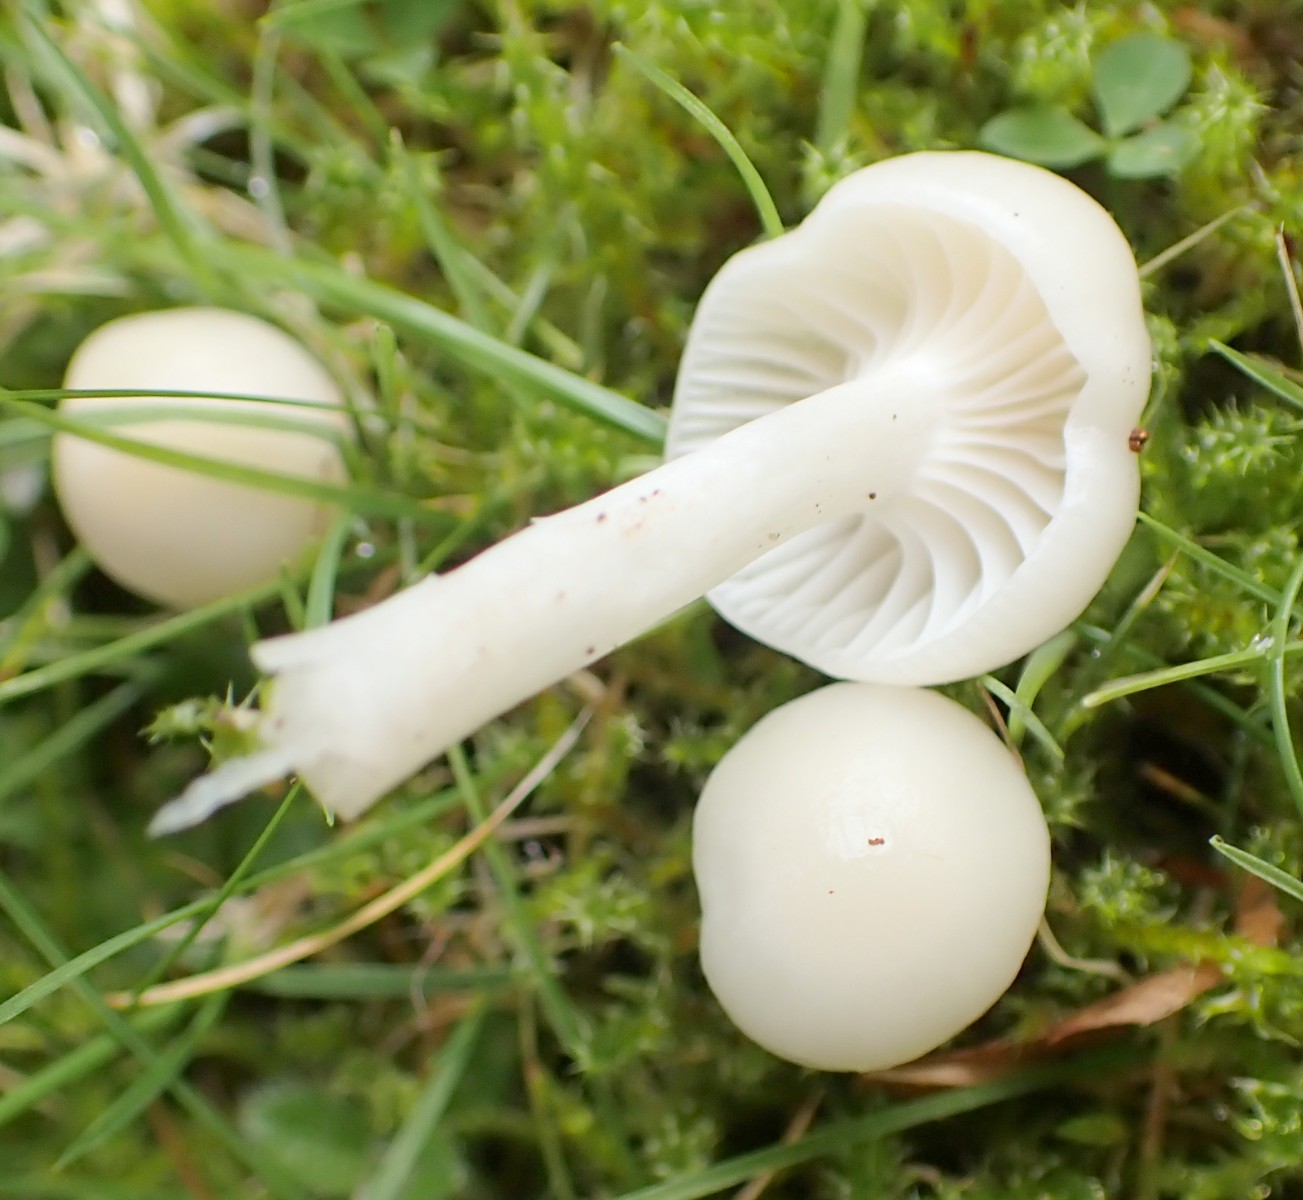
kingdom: Fungi
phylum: Basidiomycota
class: Agaricomycetes
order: Agaricales
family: Hygrophoraceae
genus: Cuphophyllus
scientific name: Cuphophyllus virgineus
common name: snehvid vokshat
